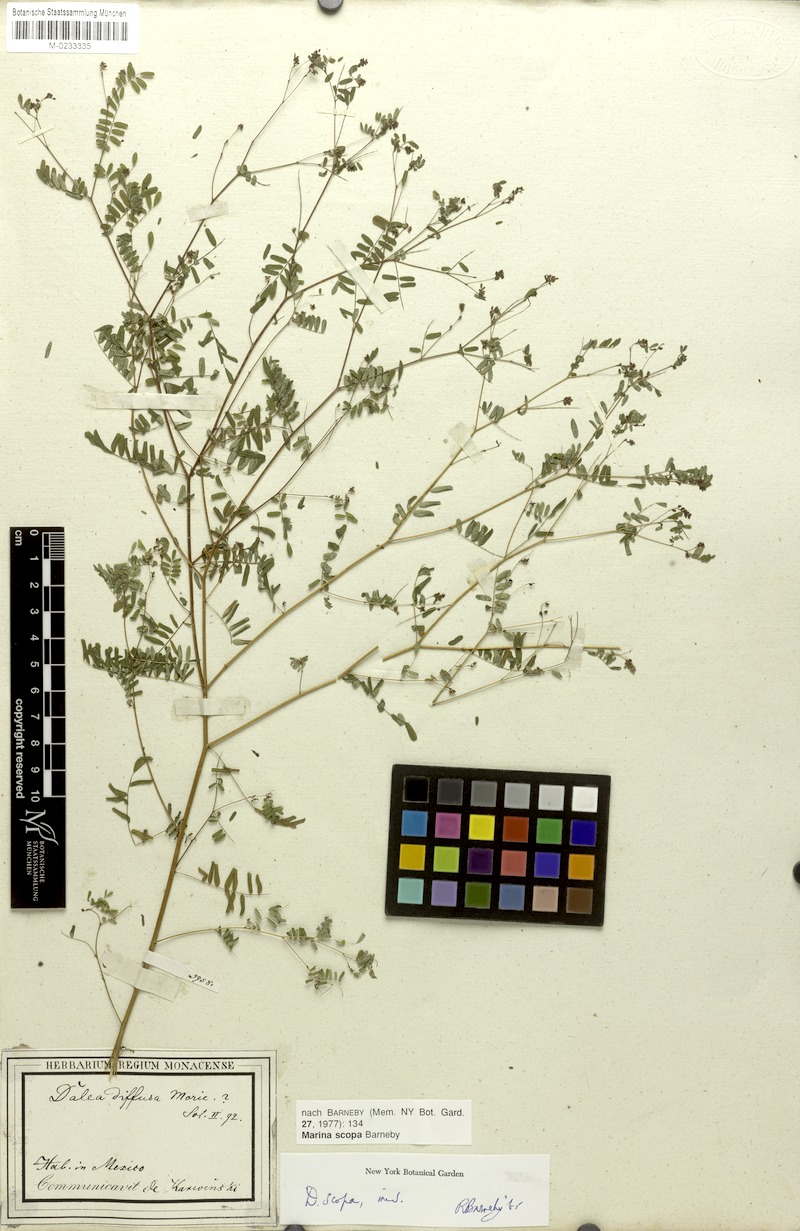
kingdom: Plantae
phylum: Tracheophyta
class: Magnoliopsida
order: Fabales
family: Fabaceae
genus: Marina
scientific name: Marina scopa
